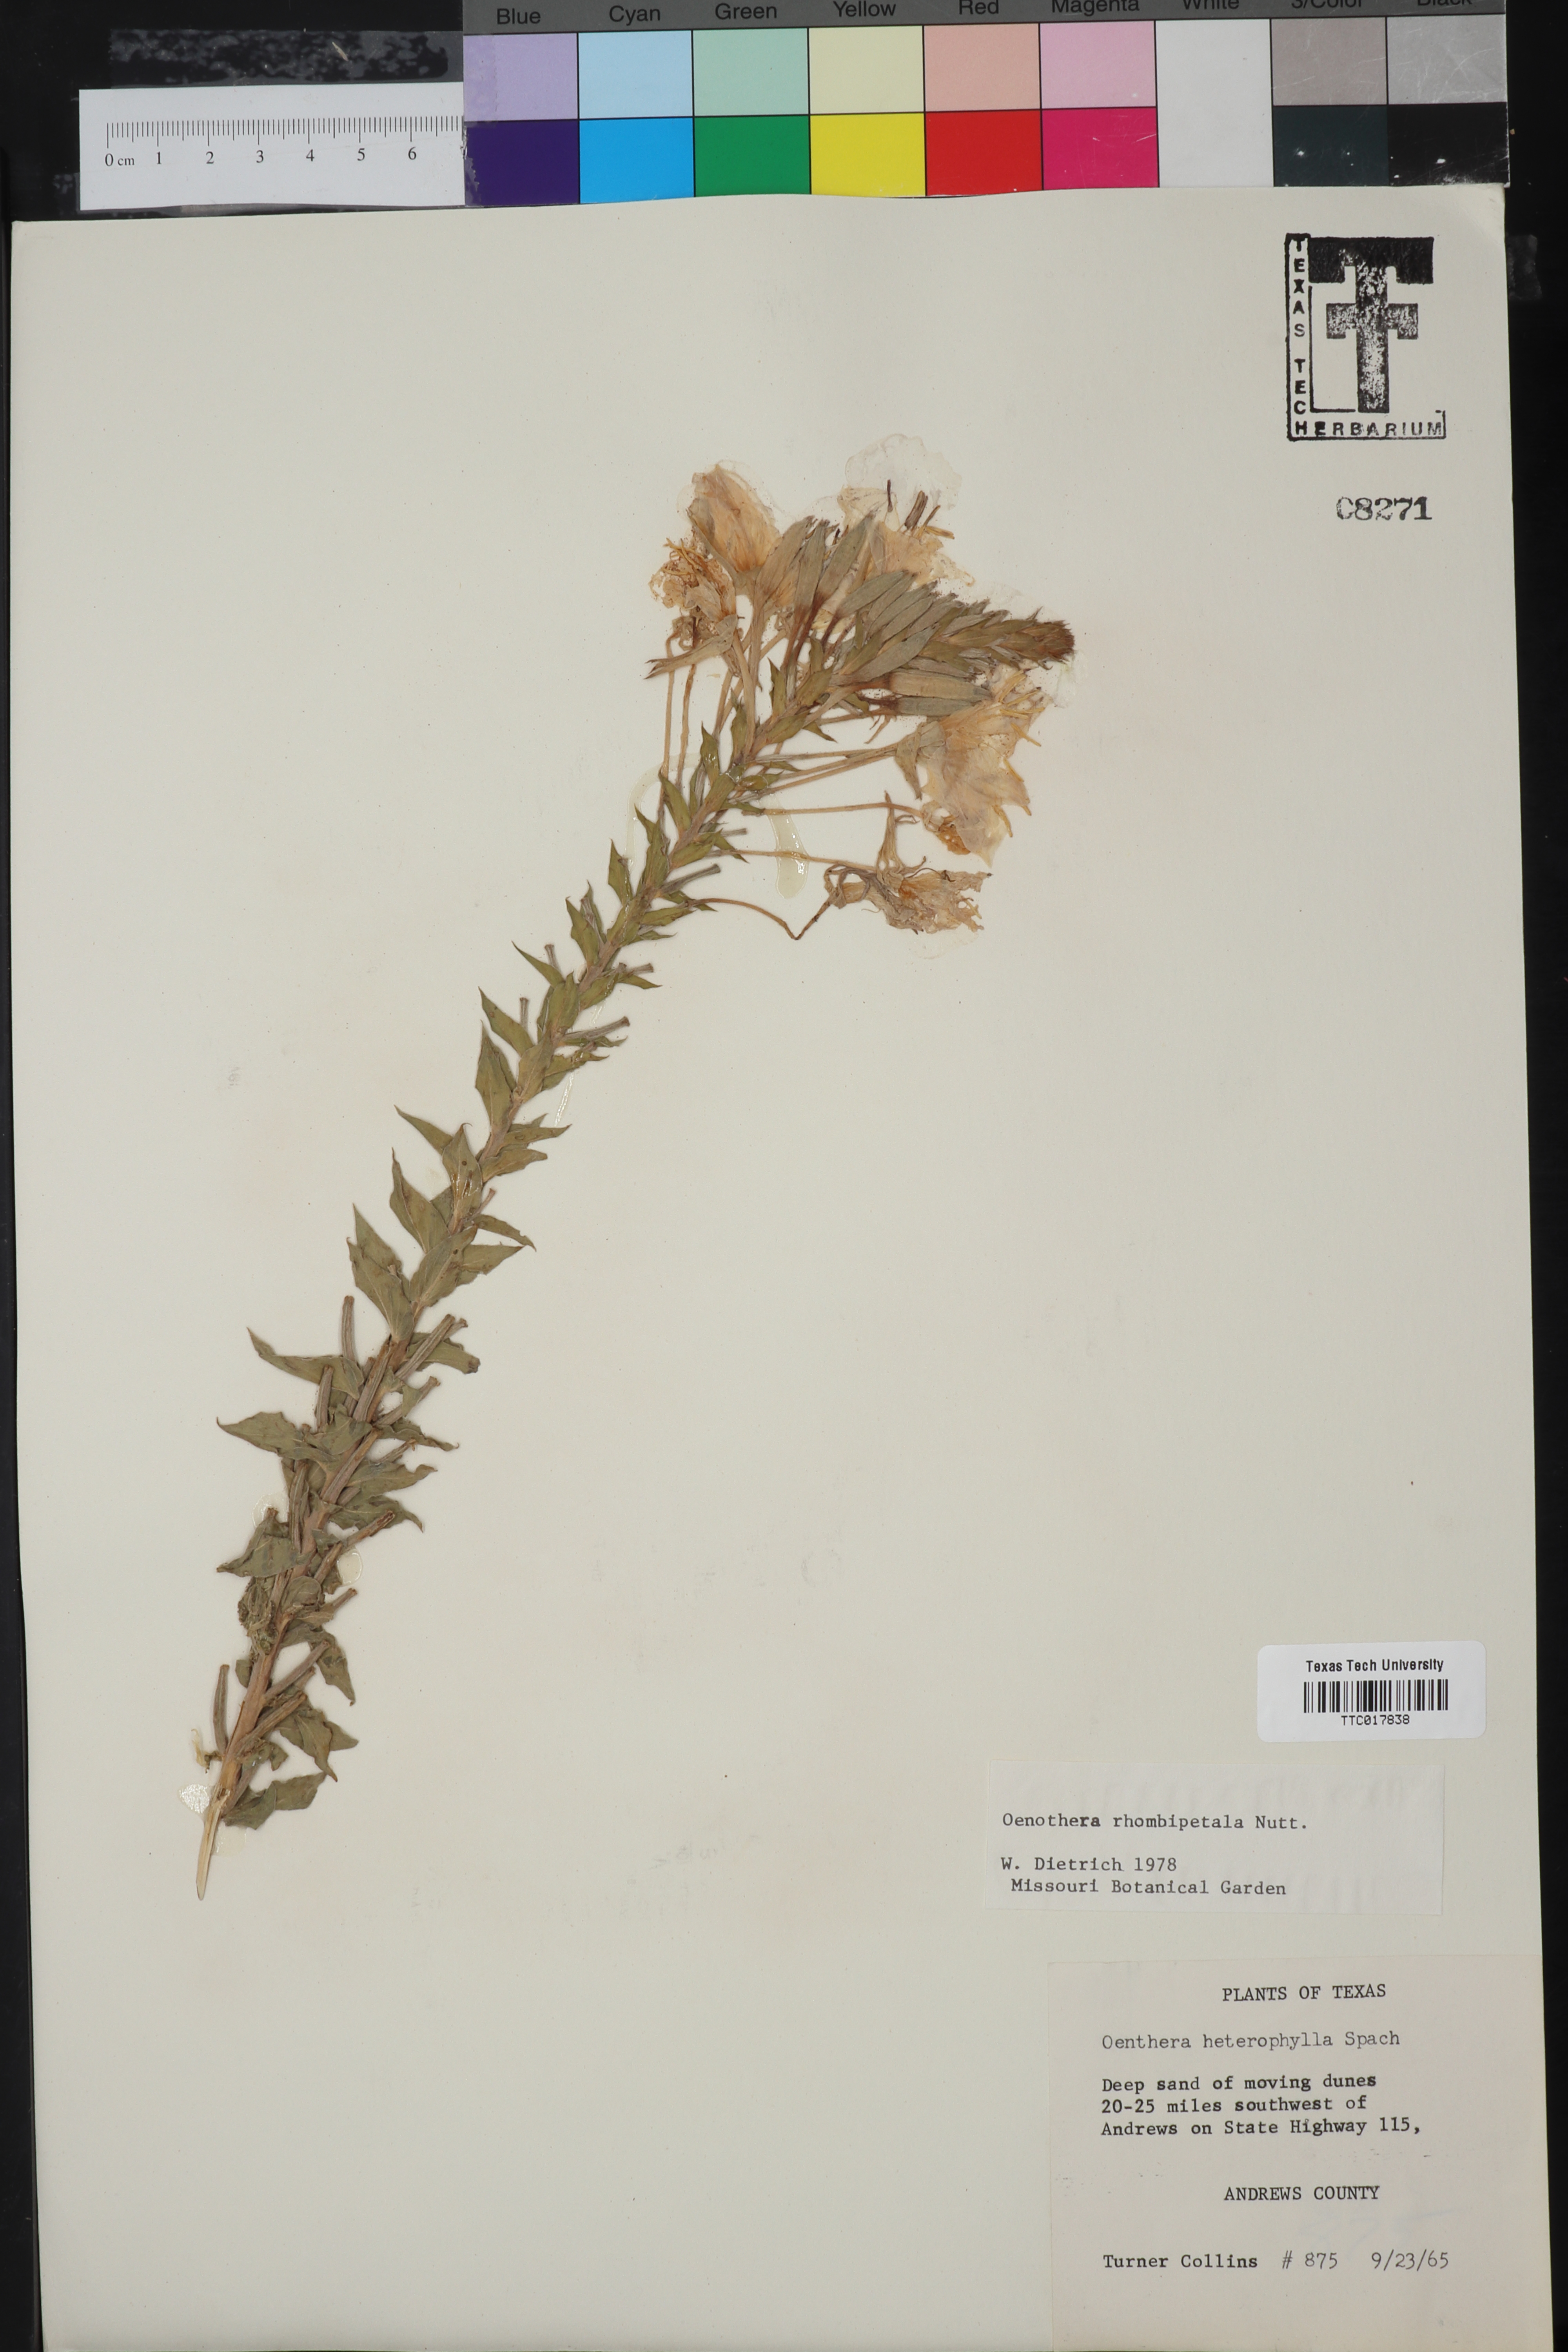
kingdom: Plantae
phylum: Tracheophyta
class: Magnoliopsida
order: Myrtales
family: Onagraceae
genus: Oenothera
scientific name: Oenothera rhombipetala
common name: Four-points evening-primrose
